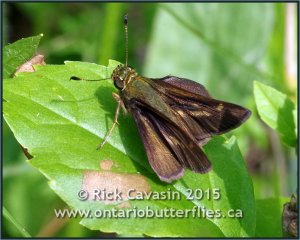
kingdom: Animalia
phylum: Arthropoda
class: Insecta
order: Lepidoptera
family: Hesperiidae
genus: Vernia
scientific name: Vernia verna
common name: Little Glassywing
